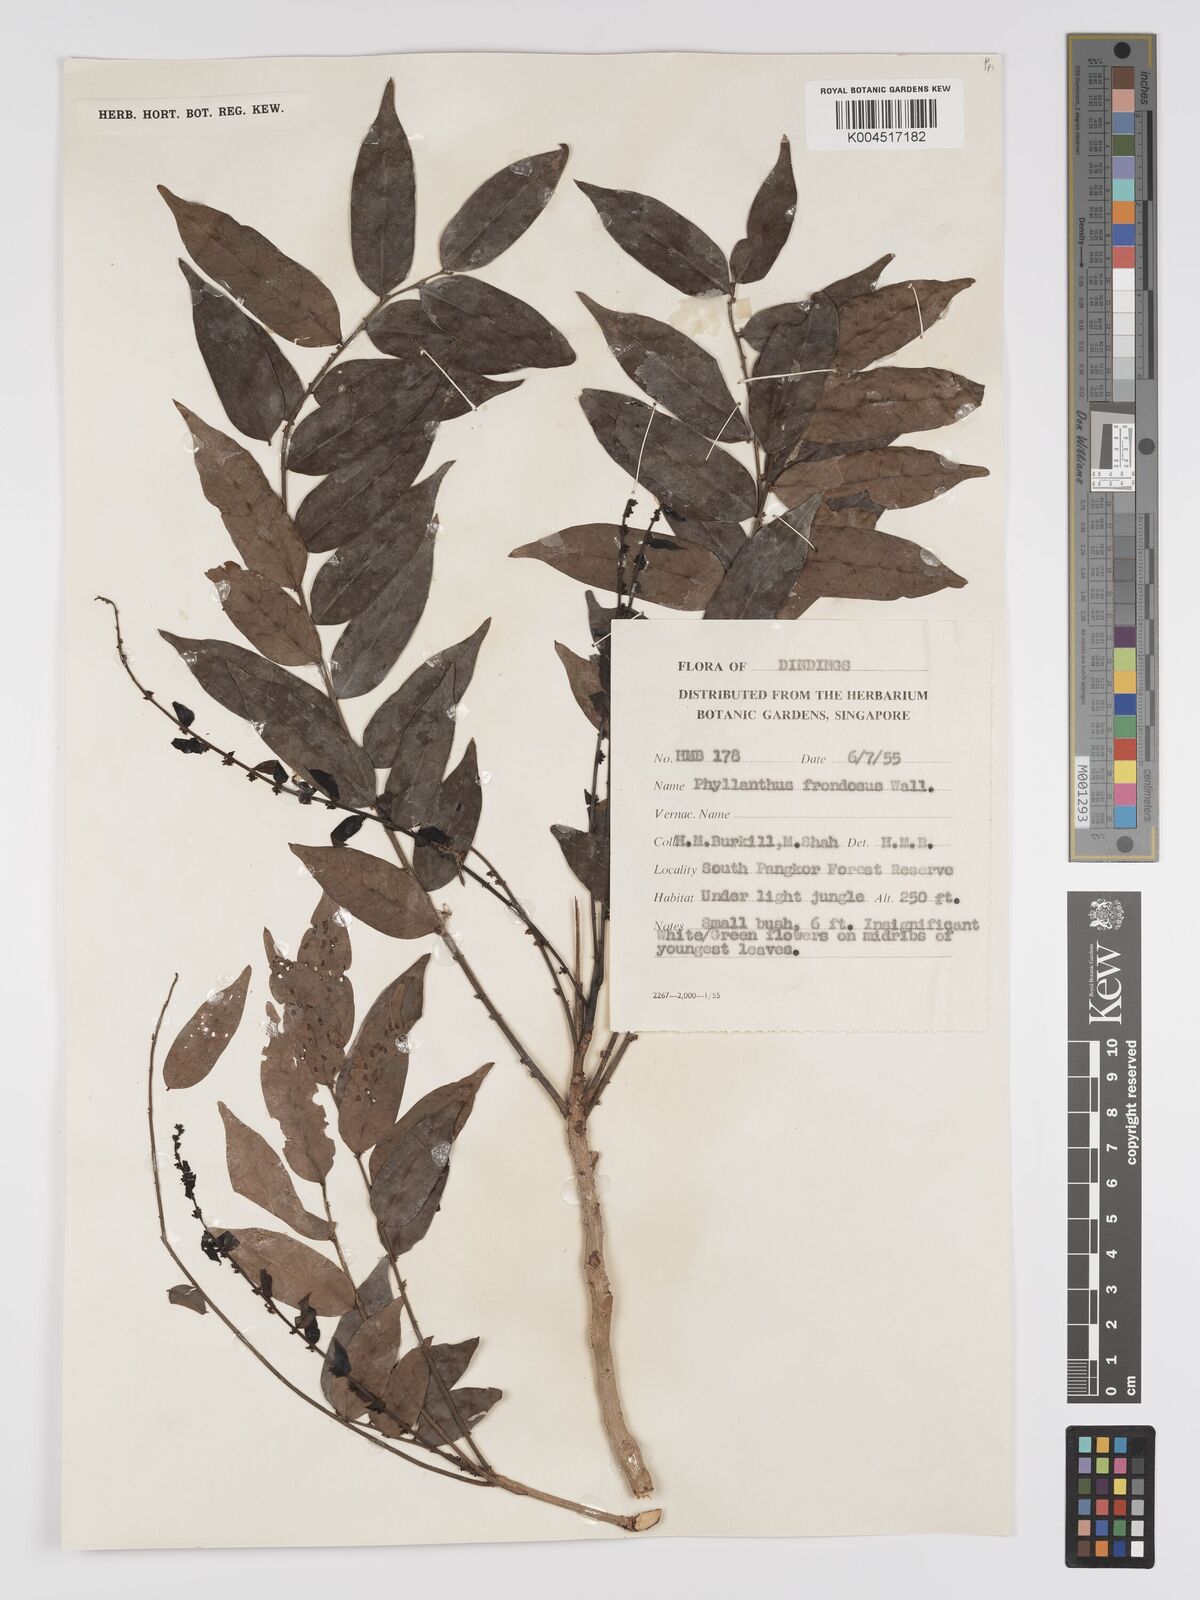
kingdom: Plantae
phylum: Tracheophyta
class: Magnoliopsida
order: Malpighiales
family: Phyllanthaceae
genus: Phyllanthus
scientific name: Phyllanthus
